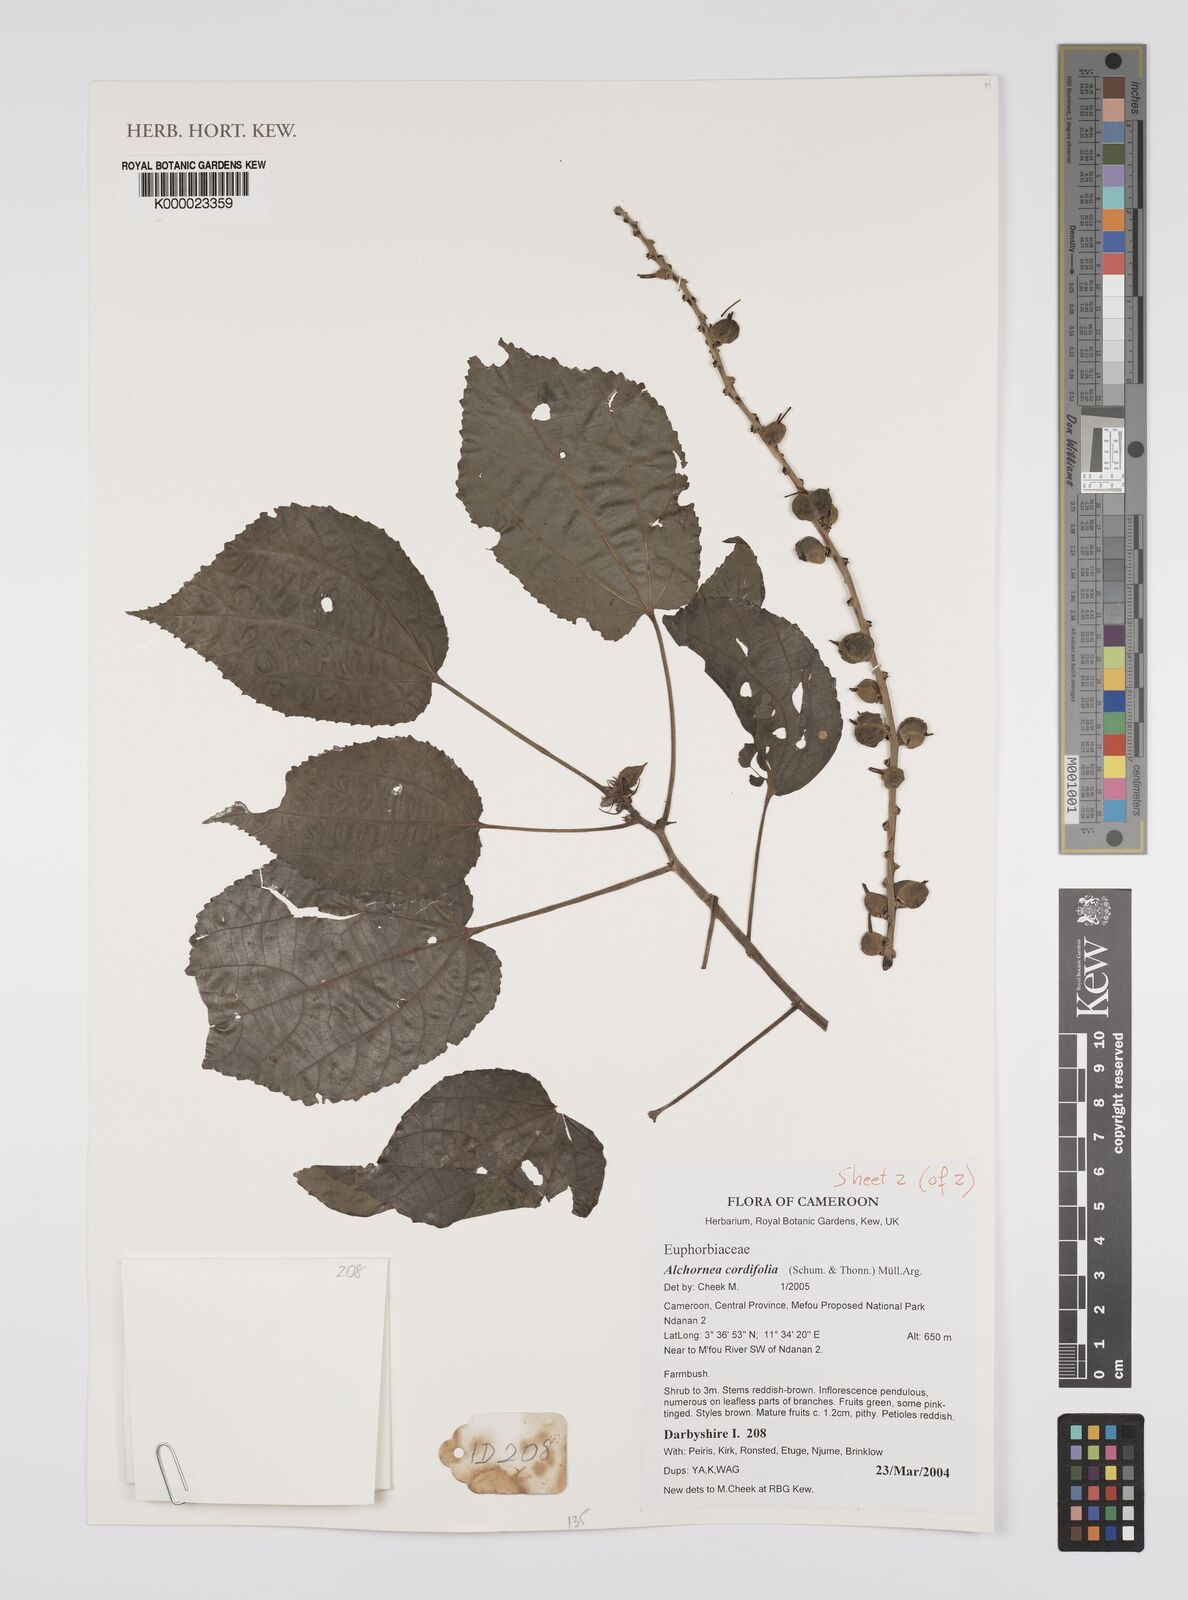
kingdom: Plantae
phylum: Tracheophyta
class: Magnoliopsida
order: Malpighiales
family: Euphorbiaceae
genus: Alchornea
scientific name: Alchornea
